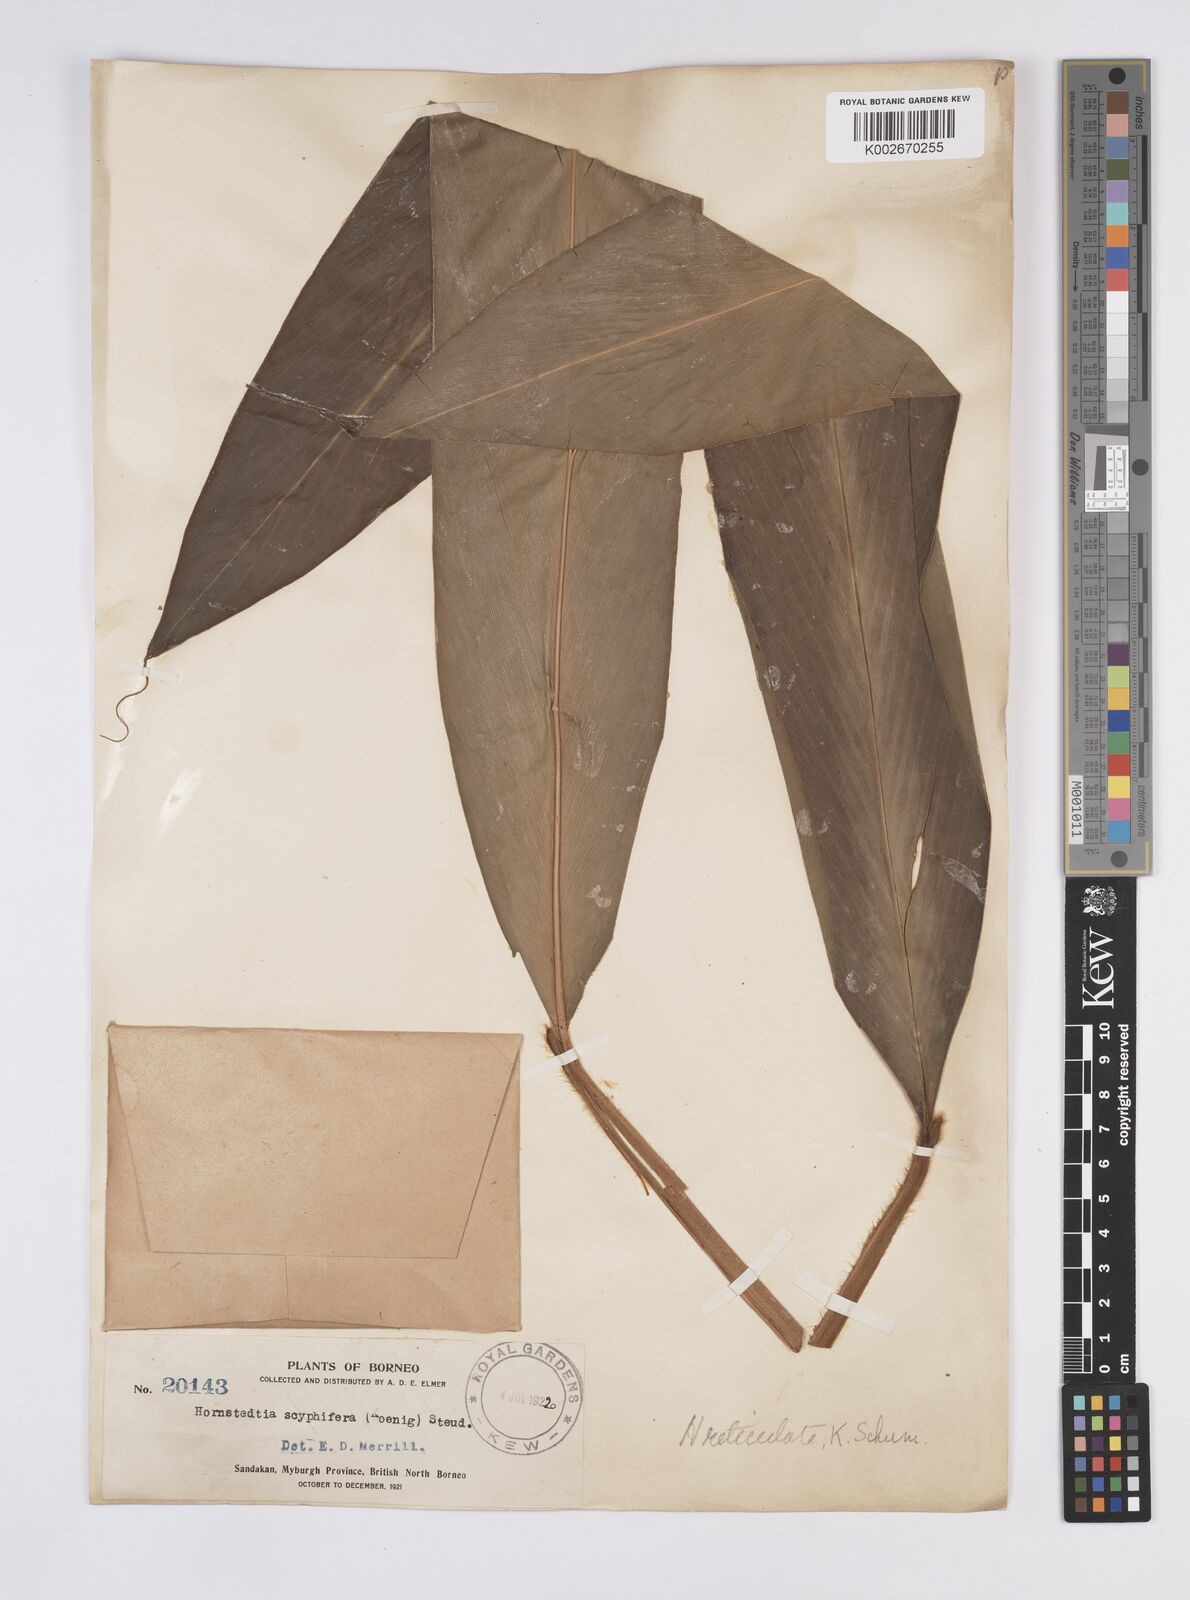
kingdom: Plantae
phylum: Tracheophyta
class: Liliopsida
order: Zingiberales
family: Zingiberaceae
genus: Hornstedtia
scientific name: Hornstedtia reticulata
